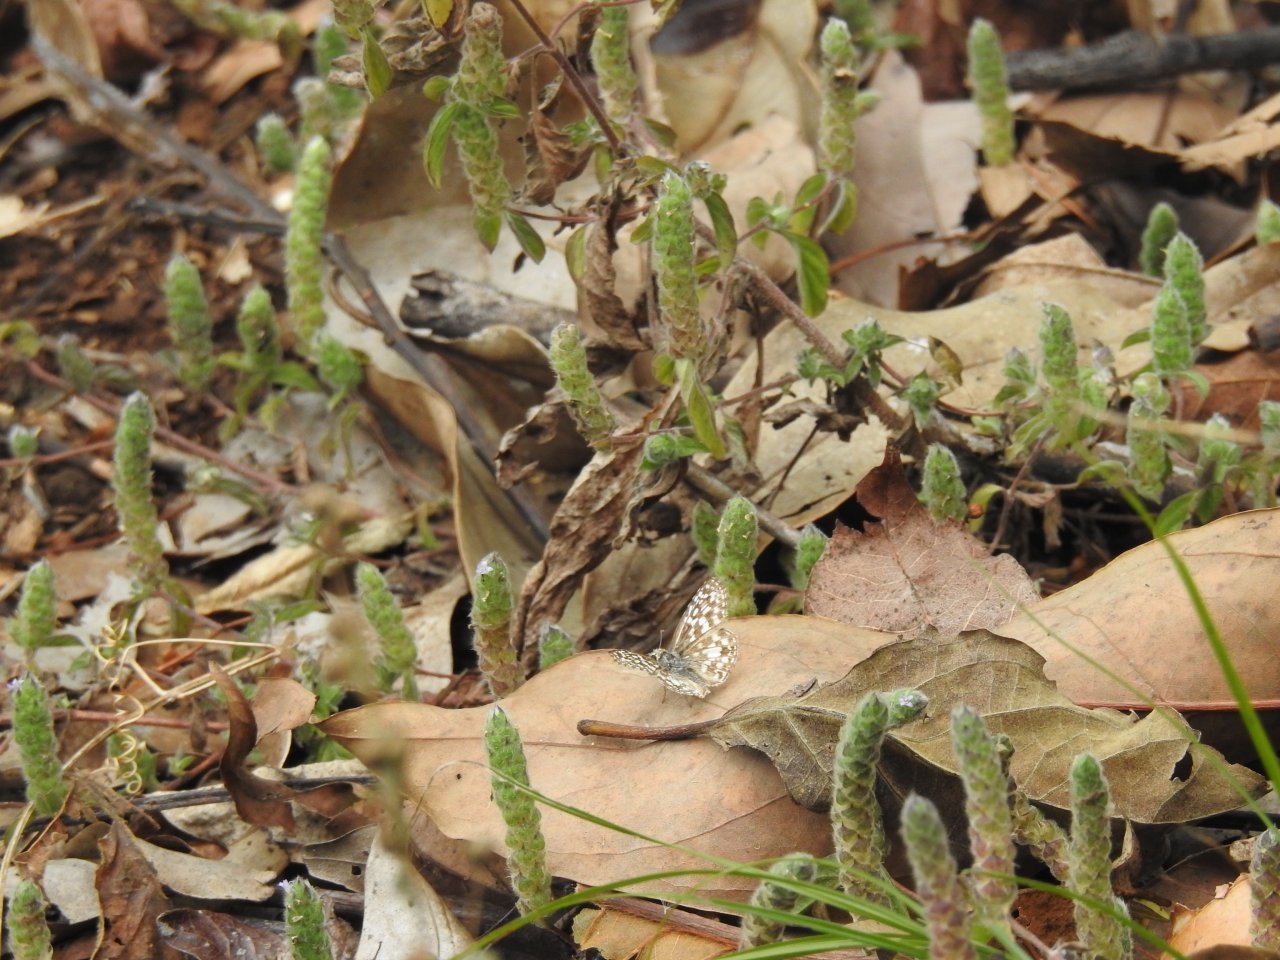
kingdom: Animalia
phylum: Arthropoda
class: Insecta
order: Lepidoptera
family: Hesperiidae
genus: Pyrgus
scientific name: Pyrgus oileus
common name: Orcus Checkered-Skipper
